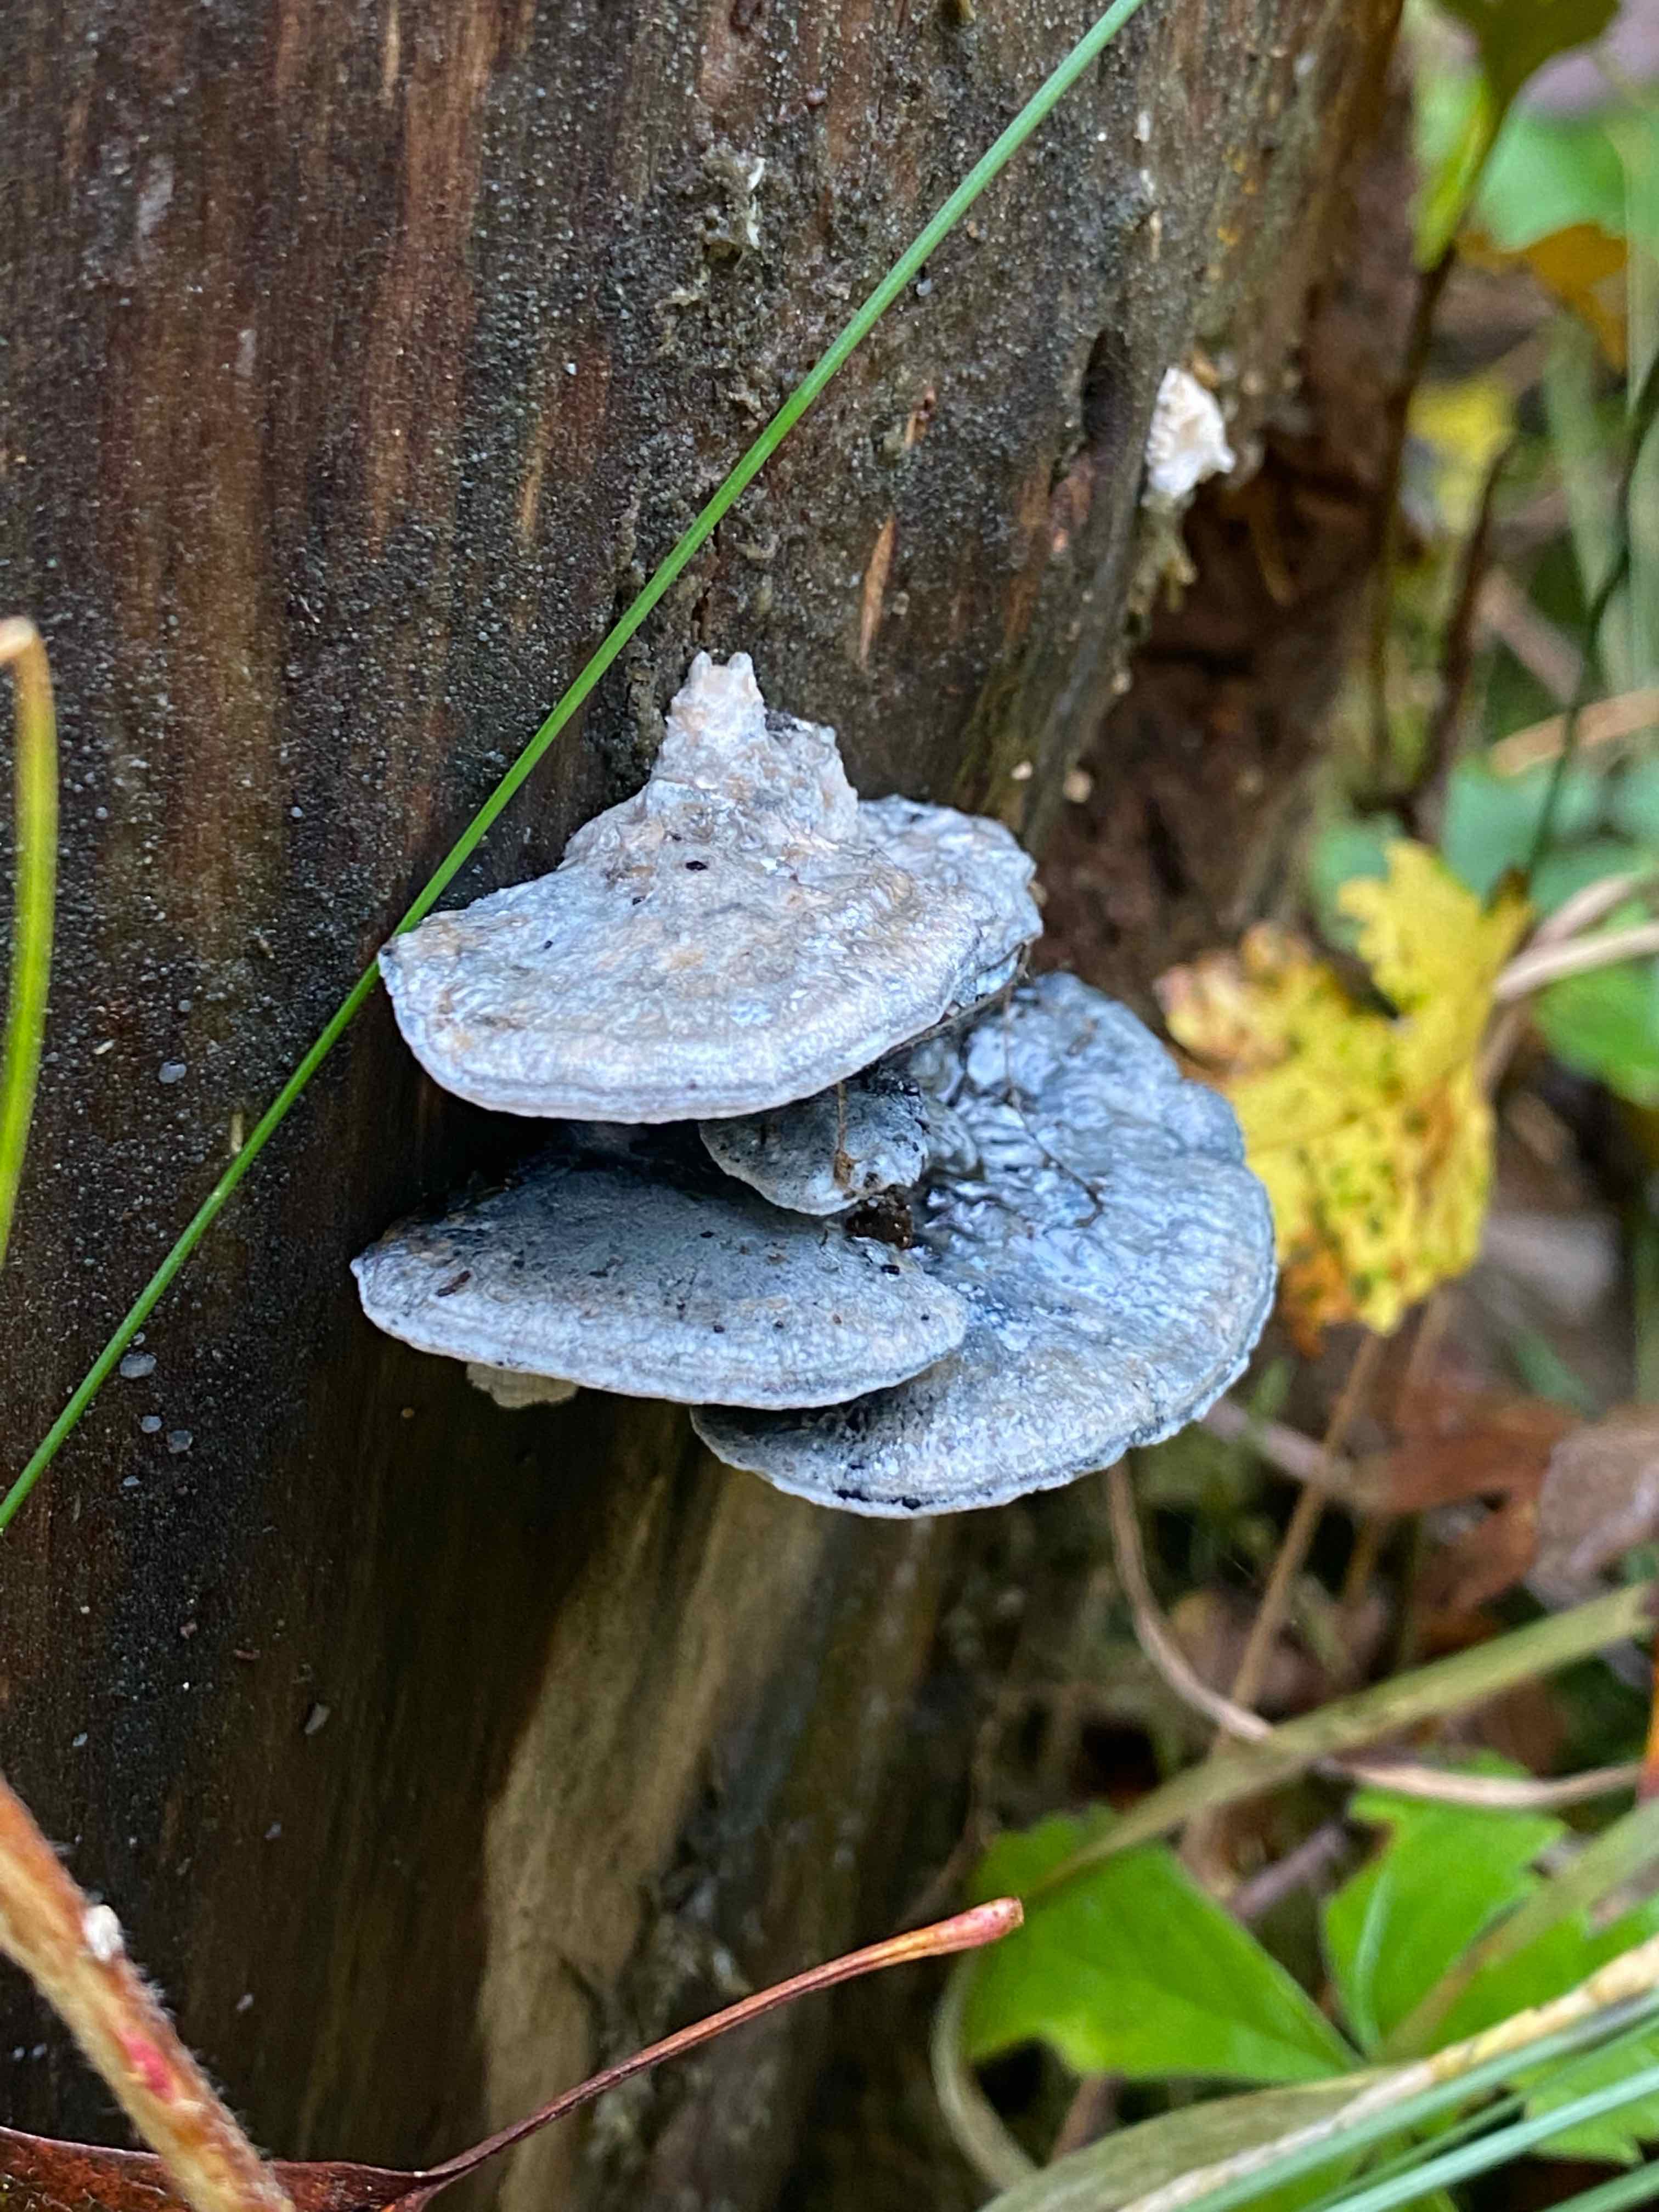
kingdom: Fungi
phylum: Basidiomycota
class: Agaricomycetes
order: Polyporales
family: Polyporaceae
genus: Cyanosporus
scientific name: Cyanosporus caesius
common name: blålig kødporesvamp
